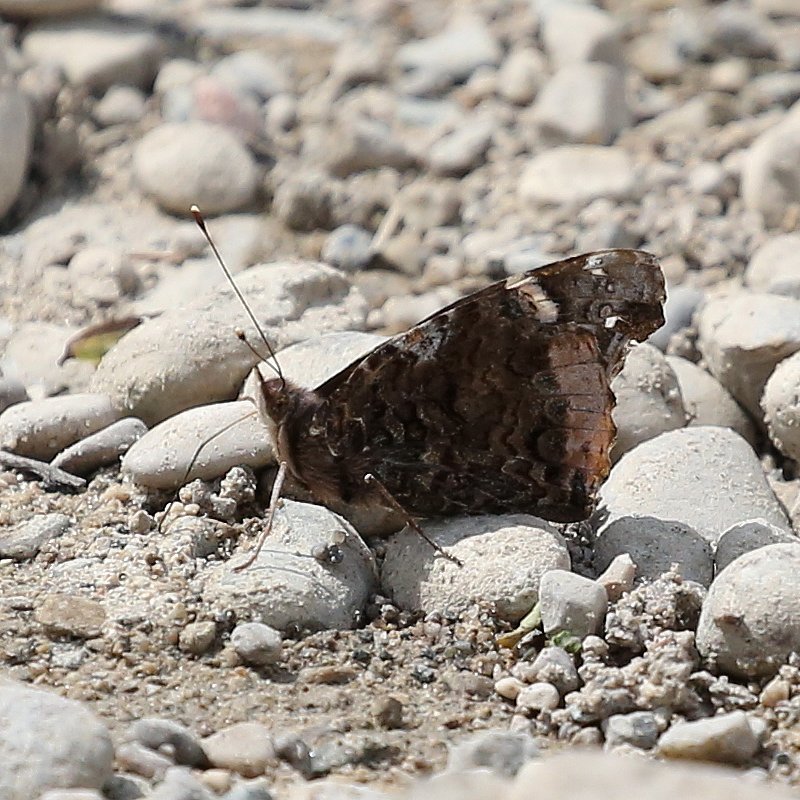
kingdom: Animalia
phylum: Arthropoda
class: Insecta
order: Lepidoptera
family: Nymphalidae
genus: Vanessa
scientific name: Vanessa atalanta
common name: Red Admiral
